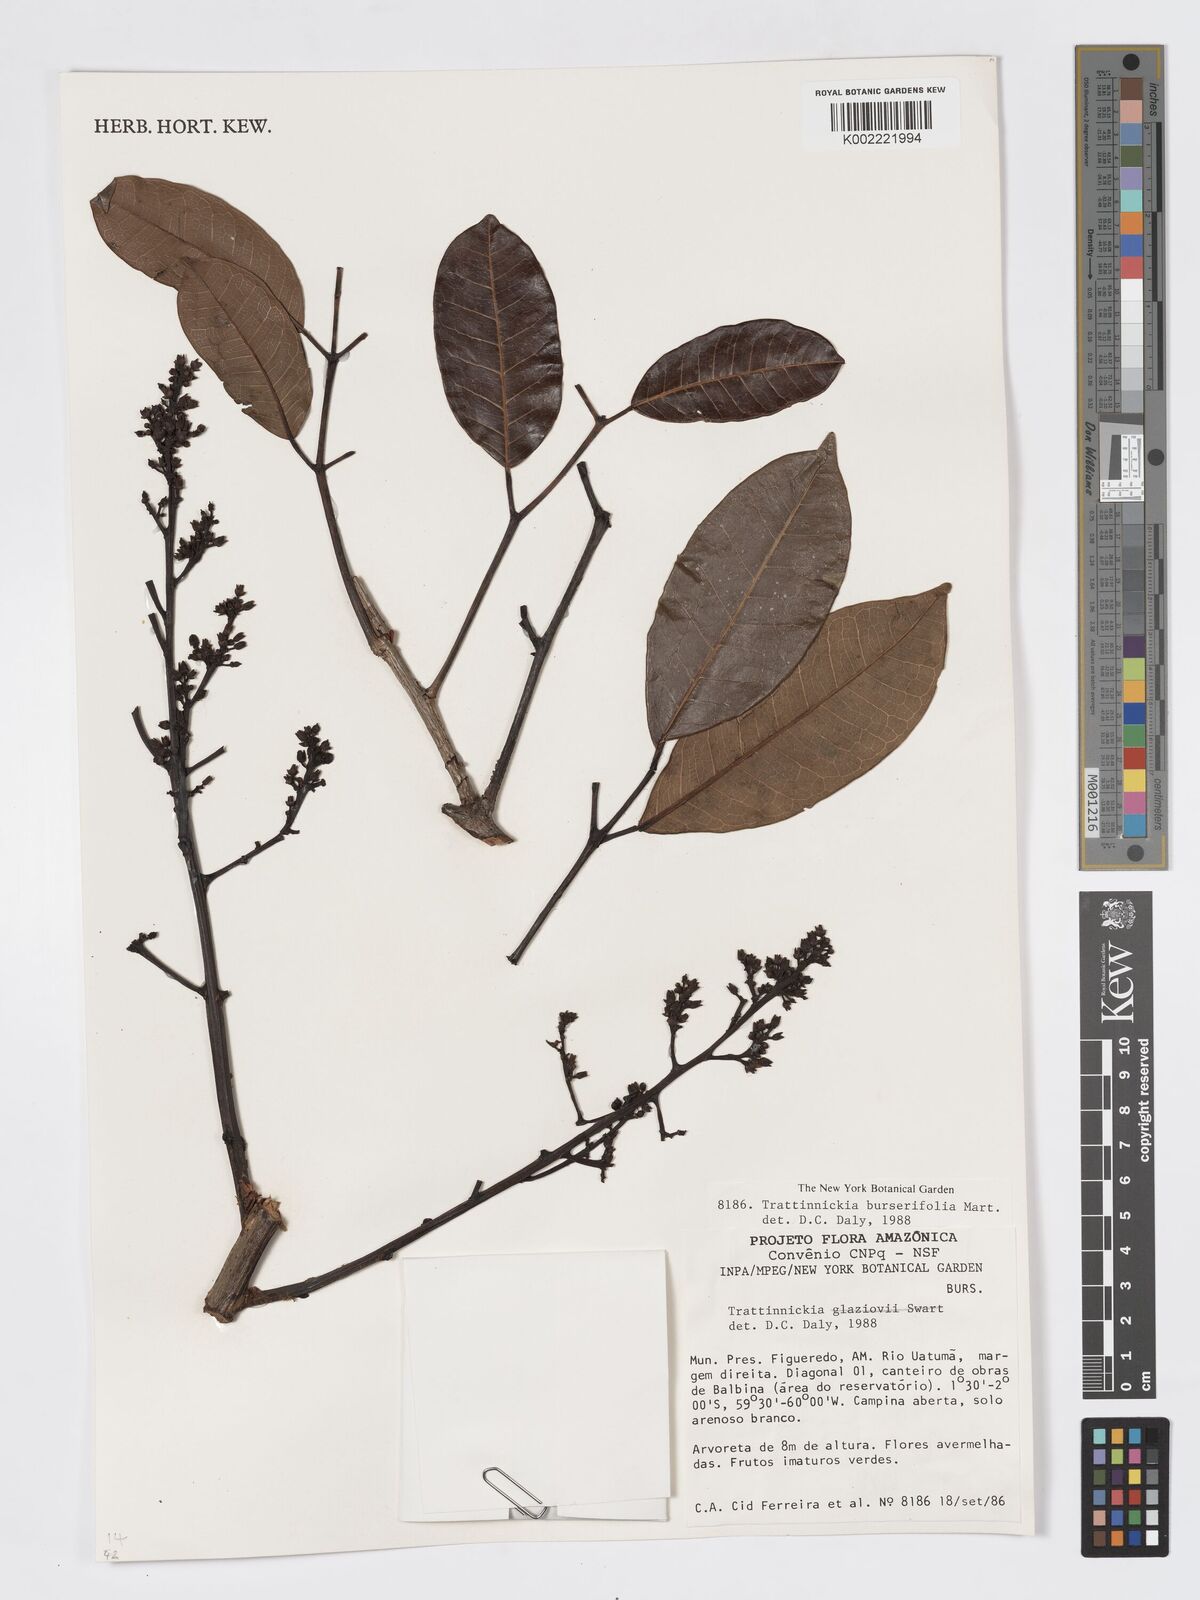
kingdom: Plantae
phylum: Tracheophyta
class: Magnoliopsida
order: Sapindales
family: Burseraceae
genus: Trattinnickia
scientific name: Trattinnickia burserifolia
